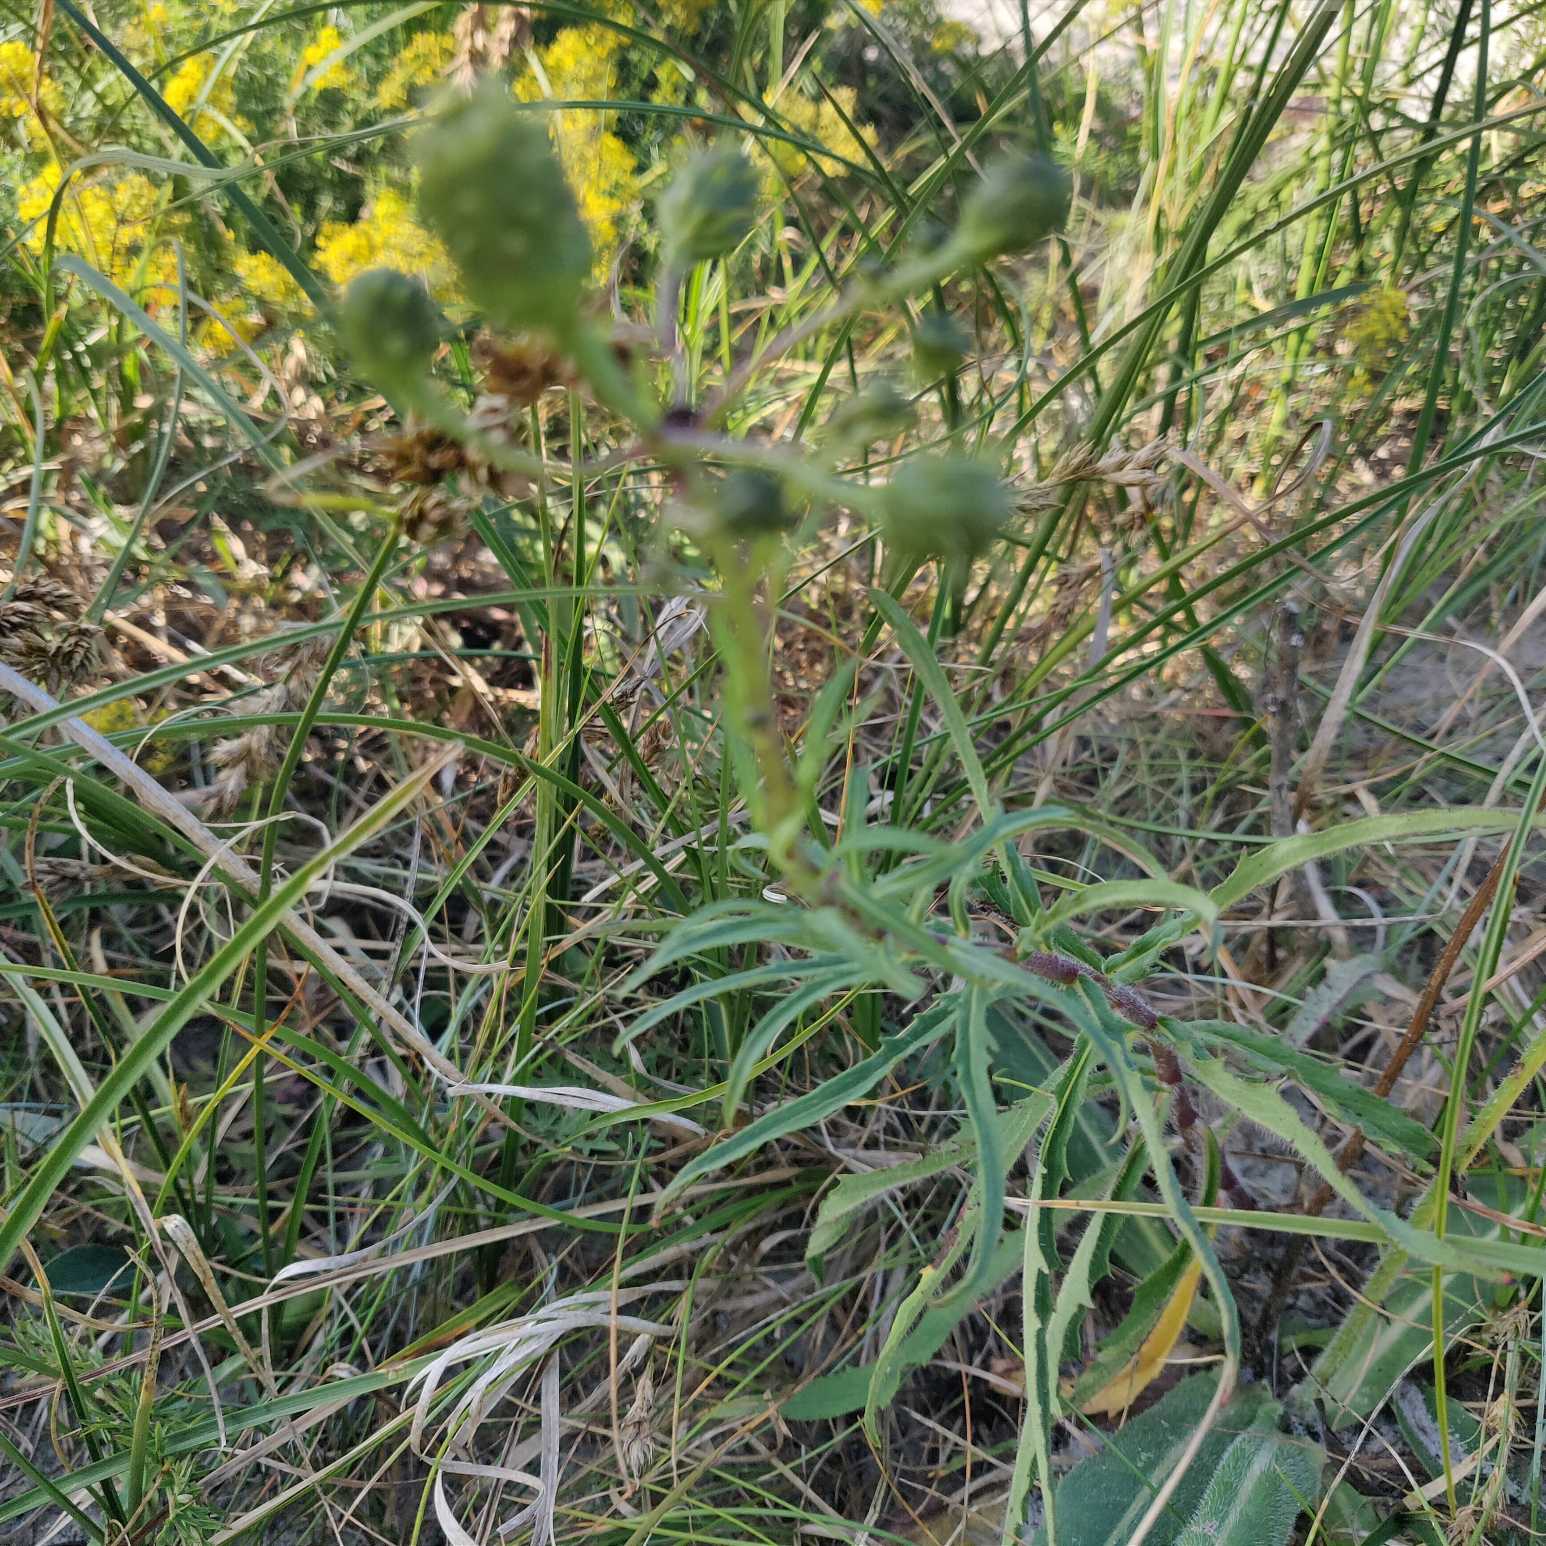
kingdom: Plantae
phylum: Tracheophyta
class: Magnoliopsida
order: Asterales
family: Asteraceae
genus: Hieracium
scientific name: Hieracium umbellatum
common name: Smalbladet høgeurt
